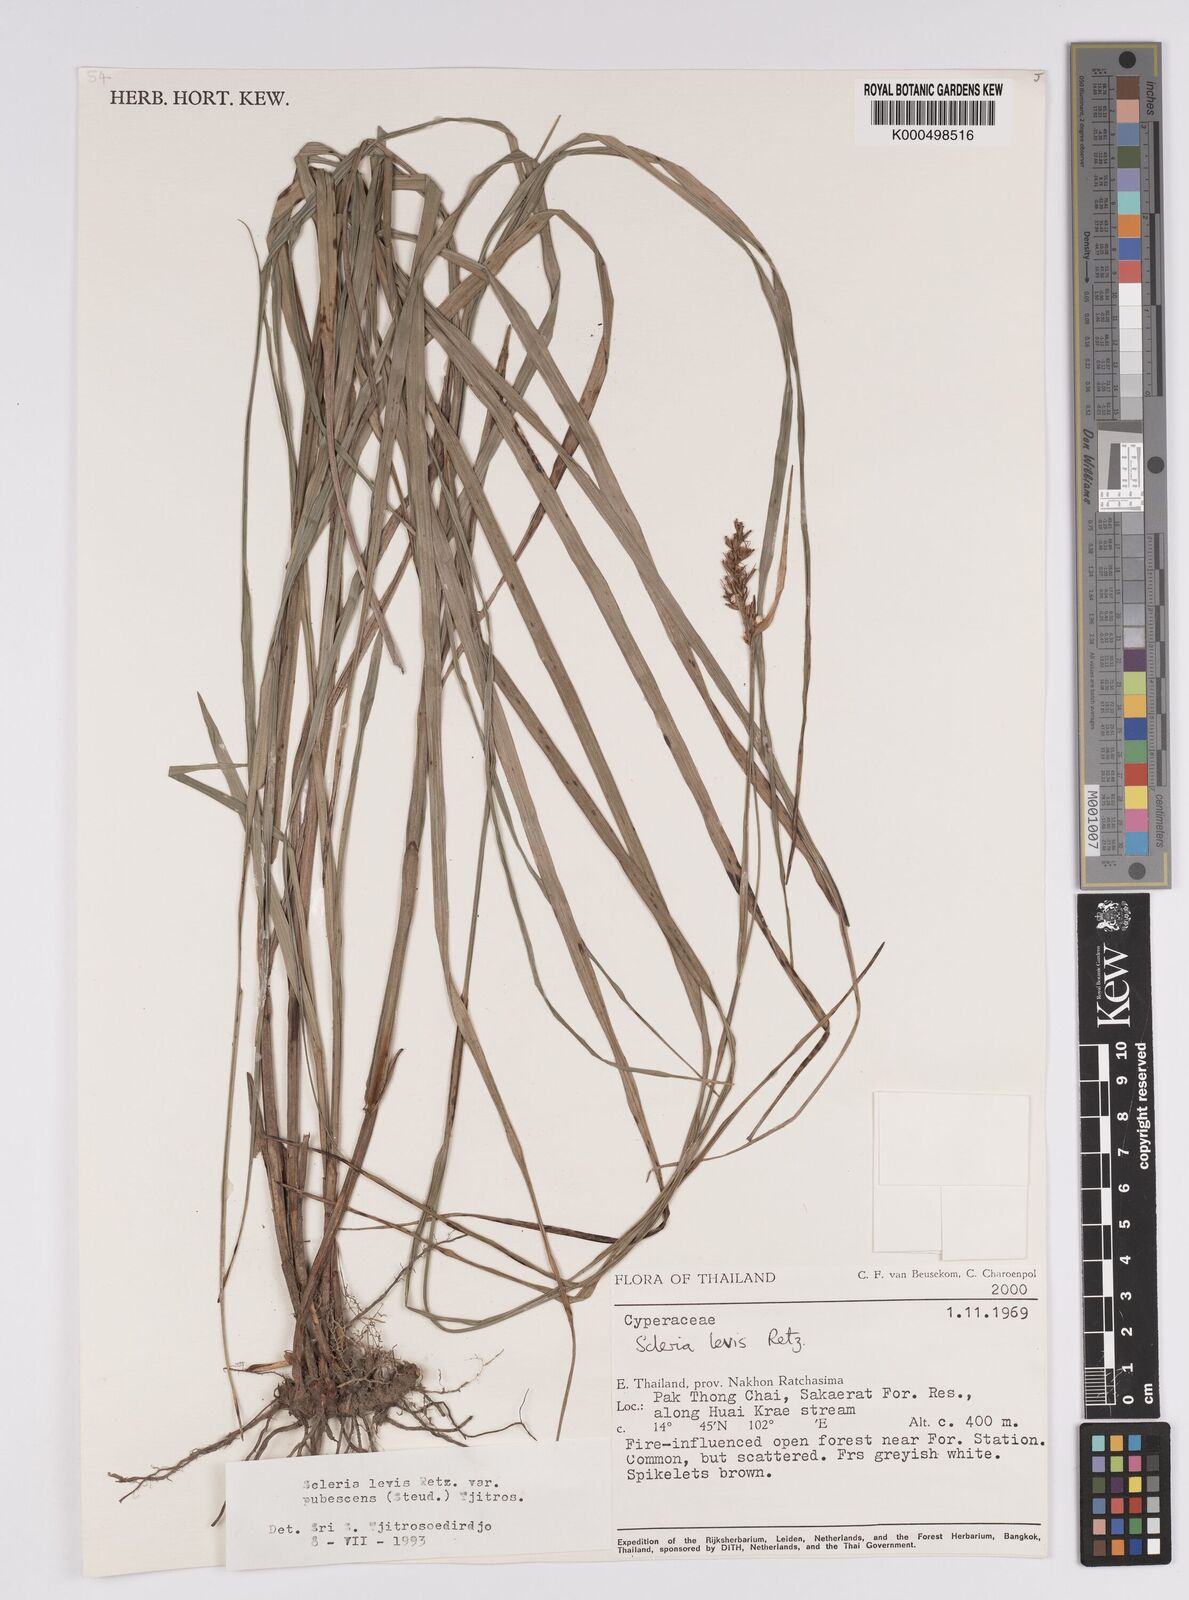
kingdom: Plantae
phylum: Tracheophyta
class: Liliopsida
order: Poales
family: Cyperaceae
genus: Scleria
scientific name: Scleria levis
